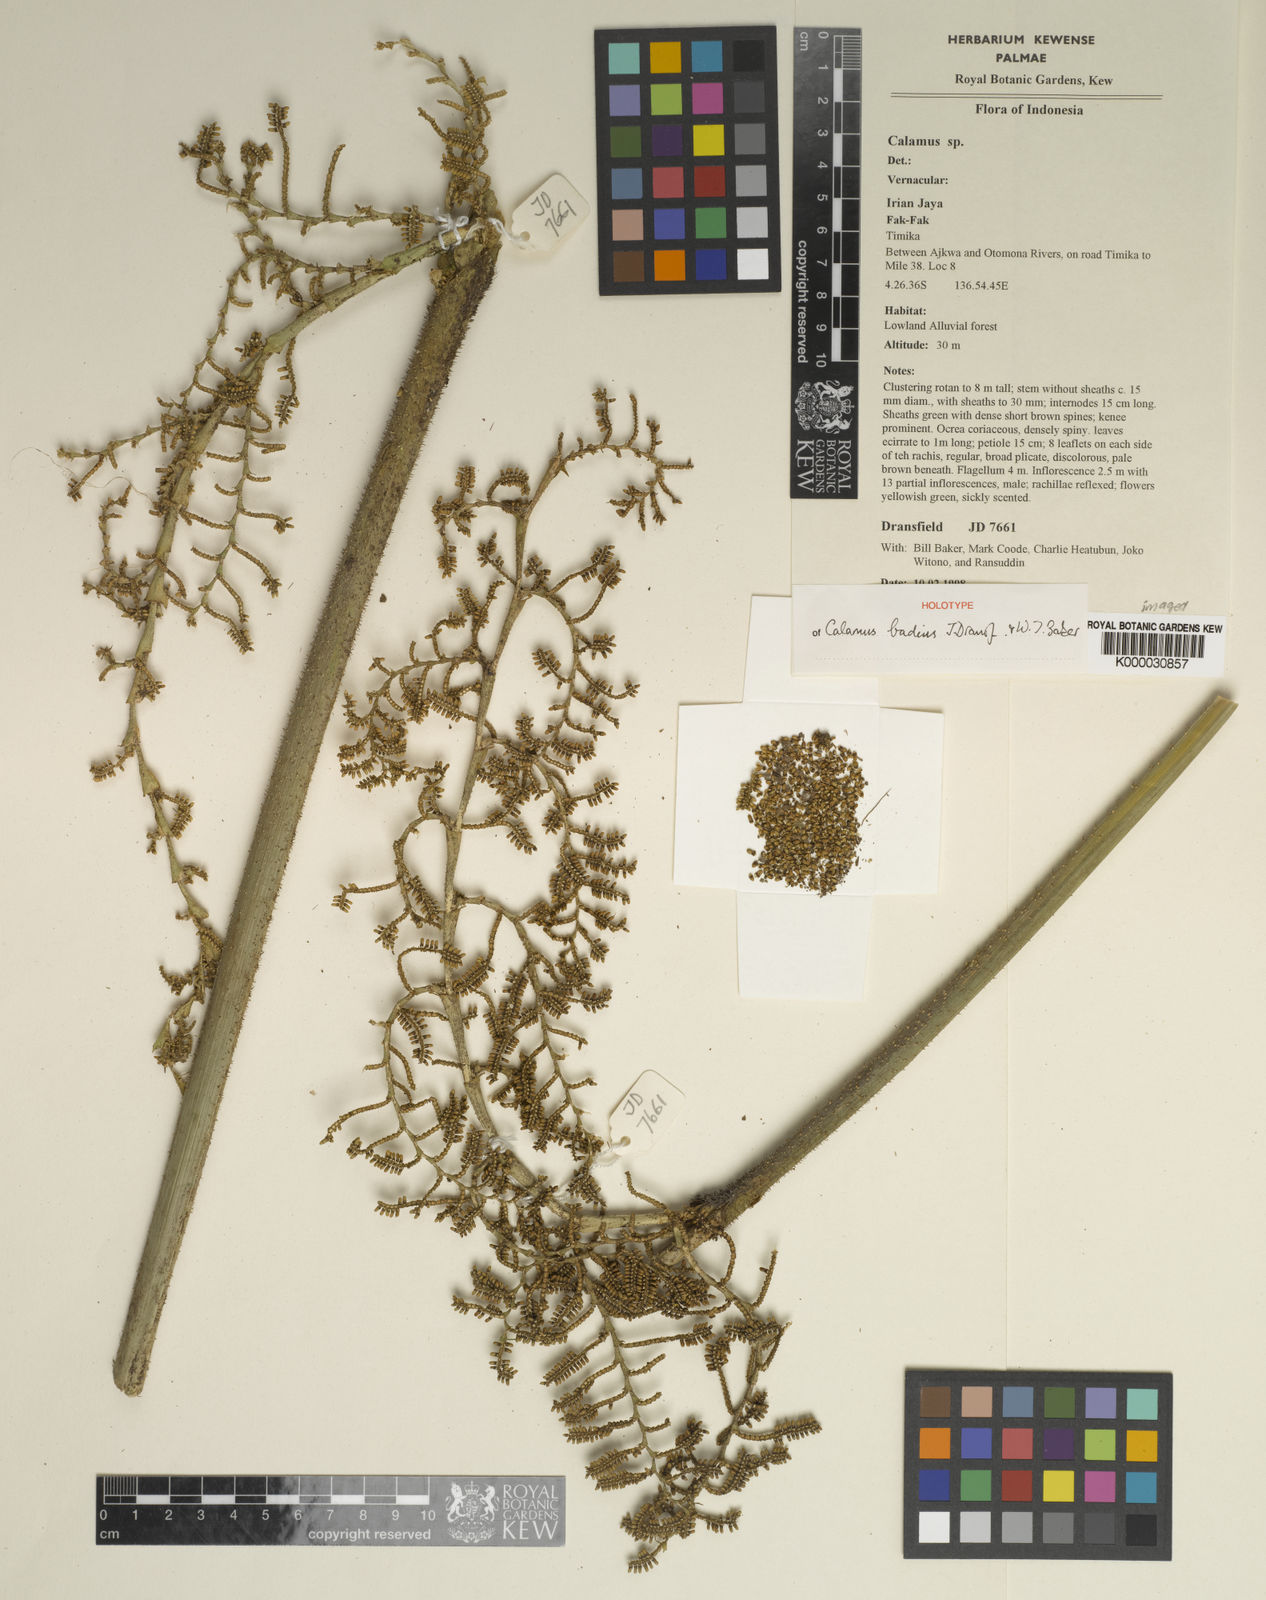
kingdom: Plantae
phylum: Tracheophyta
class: Liliopsida
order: Arecales
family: Arecaceae
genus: Calamus
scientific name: Calamus badius
